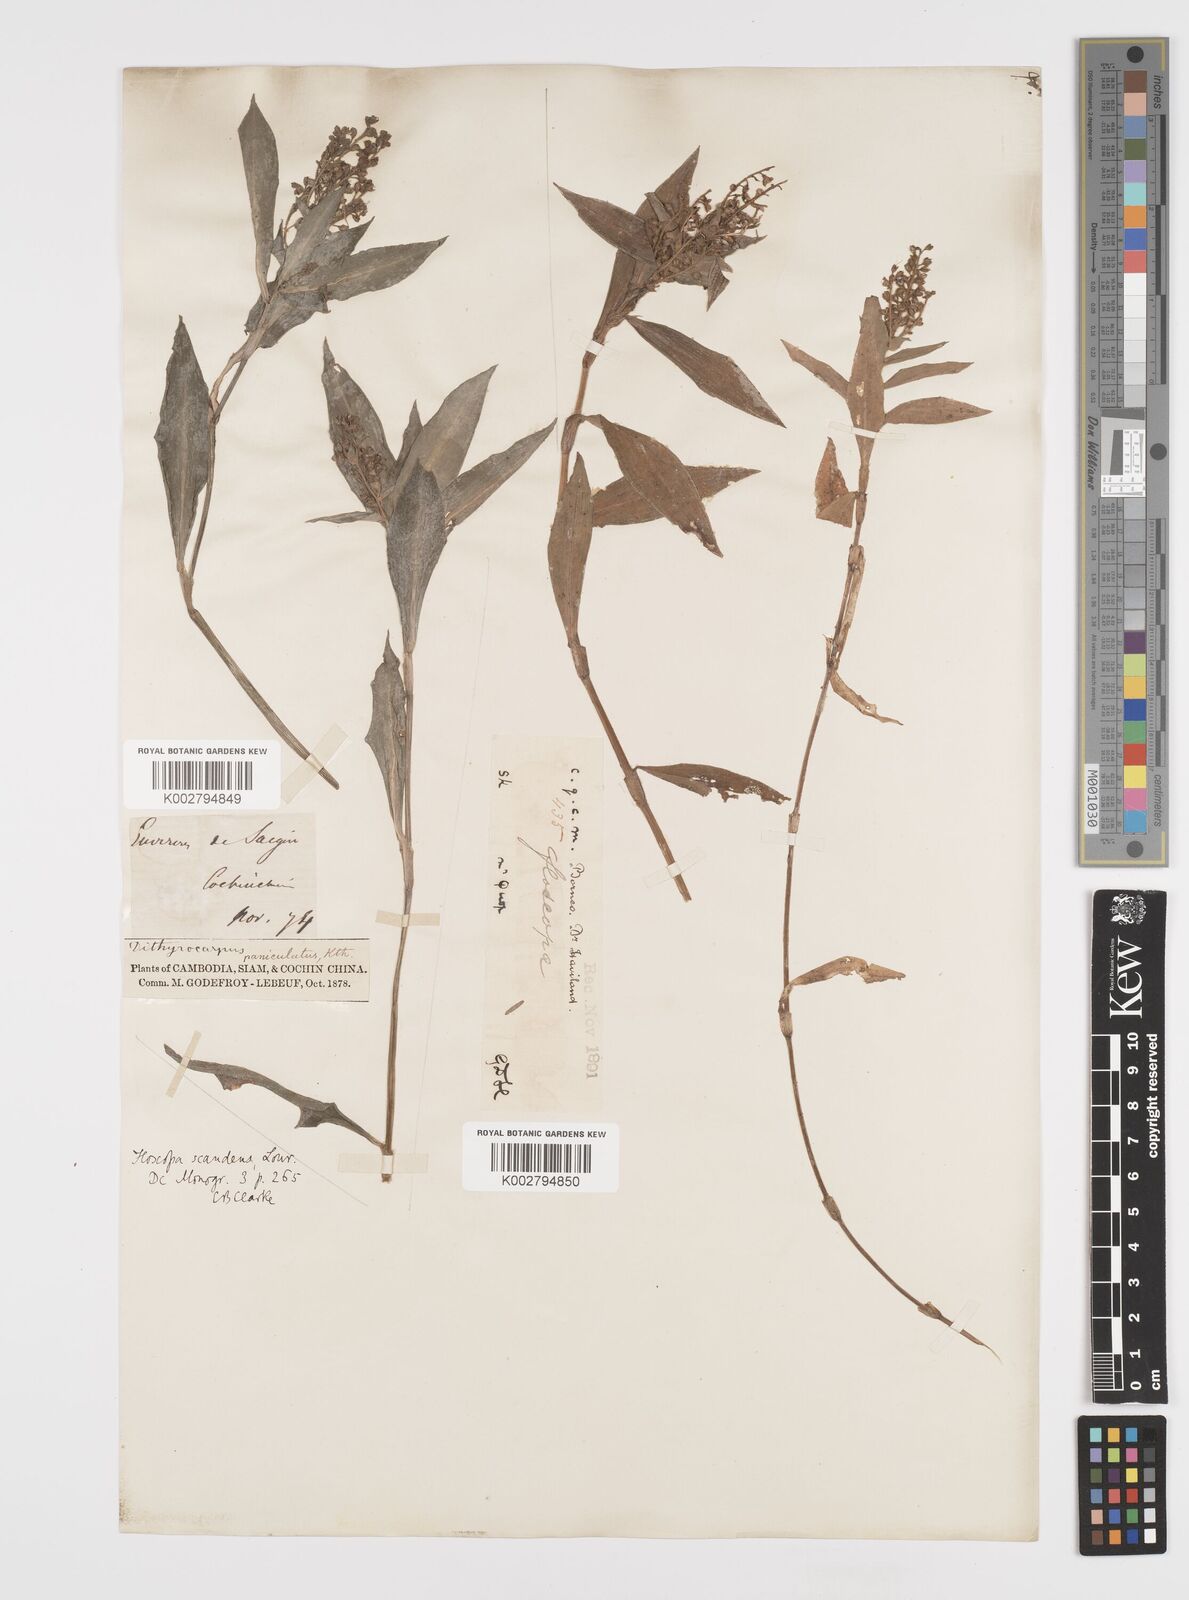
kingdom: Plantae
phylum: Tracheophyta
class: Liliopsida
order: Commelinales
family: Commelinaceae
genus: Floscopa
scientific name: Floscopa scandens
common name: Climbing flower cup
